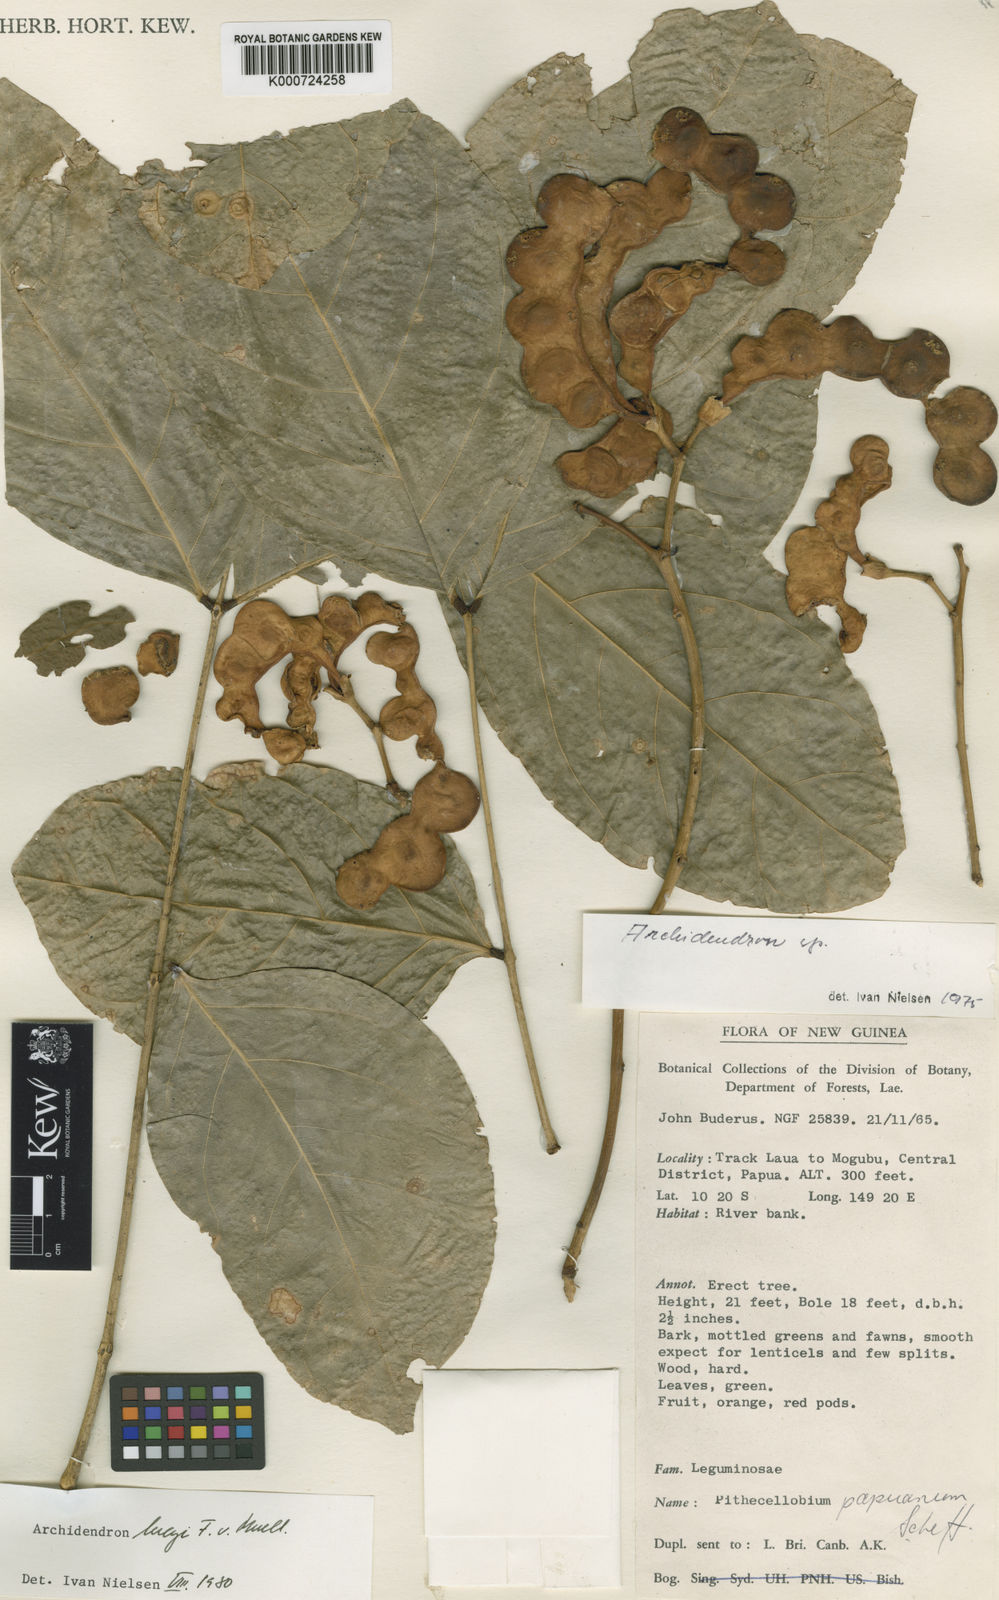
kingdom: Plantae
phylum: Tracheophyta
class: Magnoliopsida
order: Fabales
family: Fabaceae
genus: Archidendron
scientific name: Archidendron lucyi
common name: Scarlet bean
